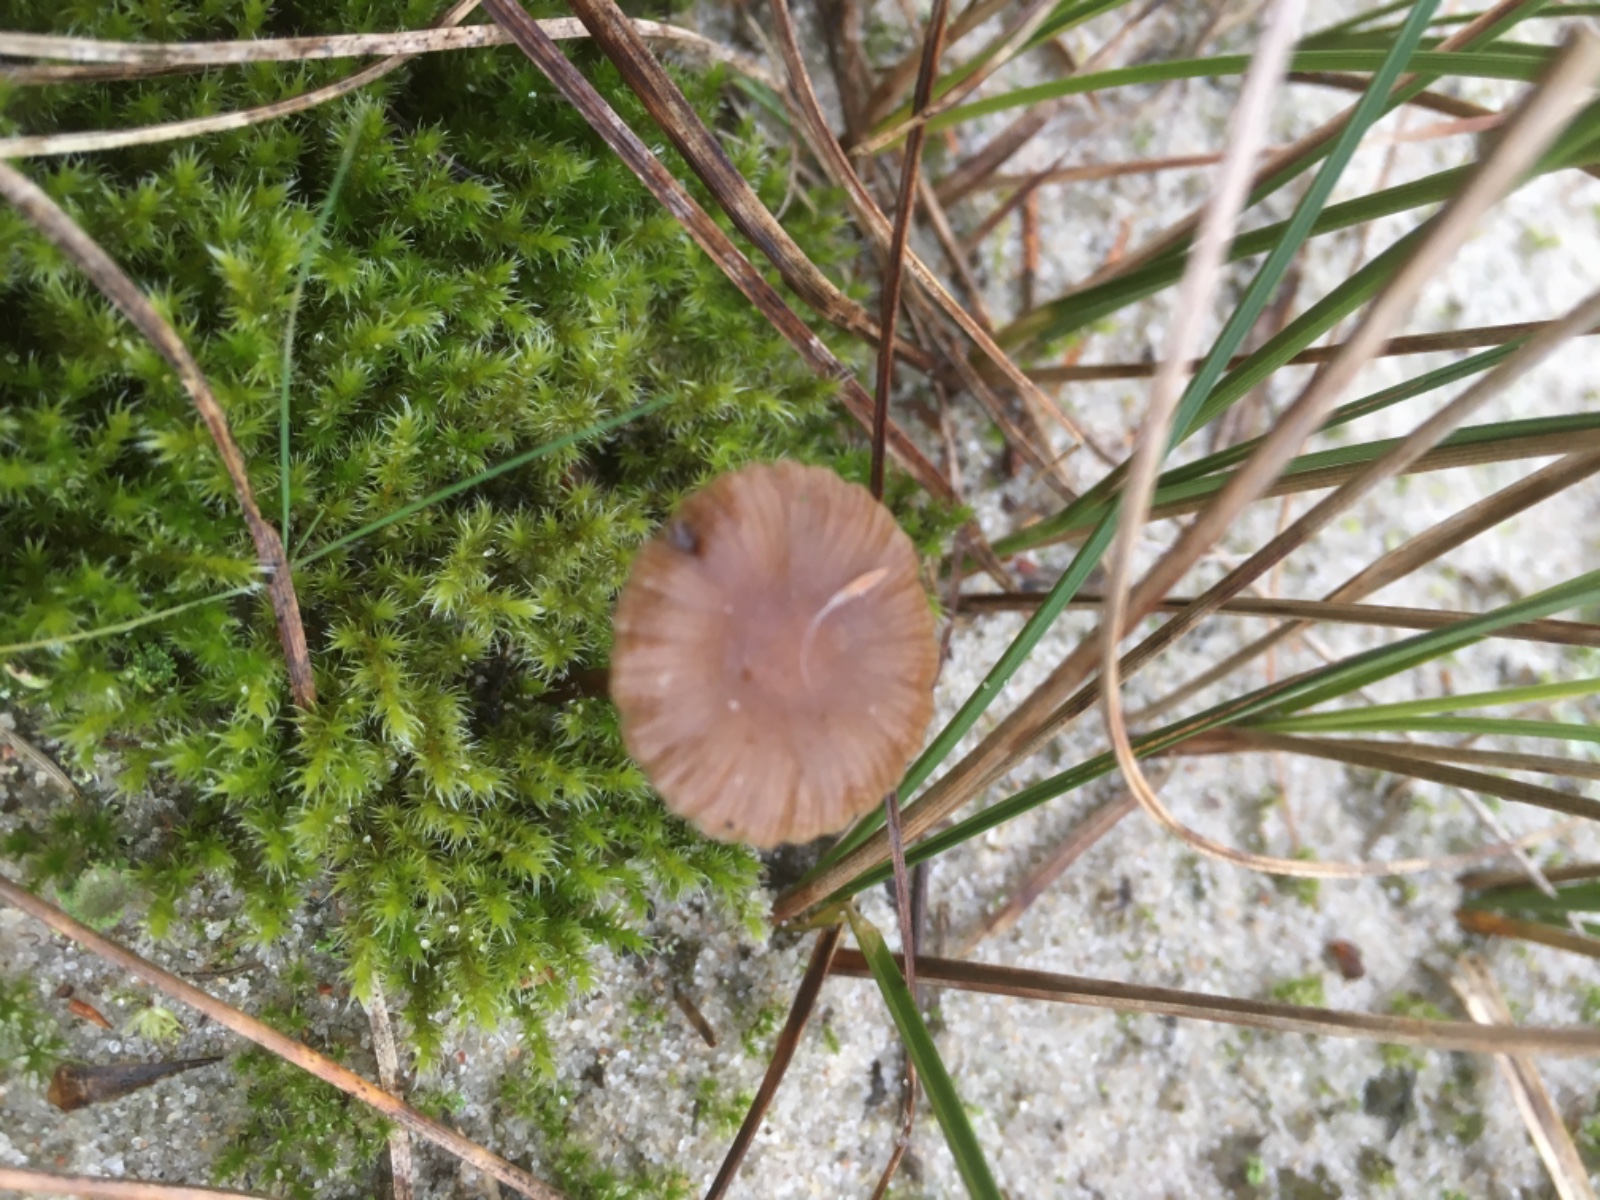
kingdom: Fungi
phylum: Basidiomycota
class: Agaricomycetes
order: Agaricales
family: Strophariaceae
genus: Deconica
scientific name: Deconica
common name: stråhat
